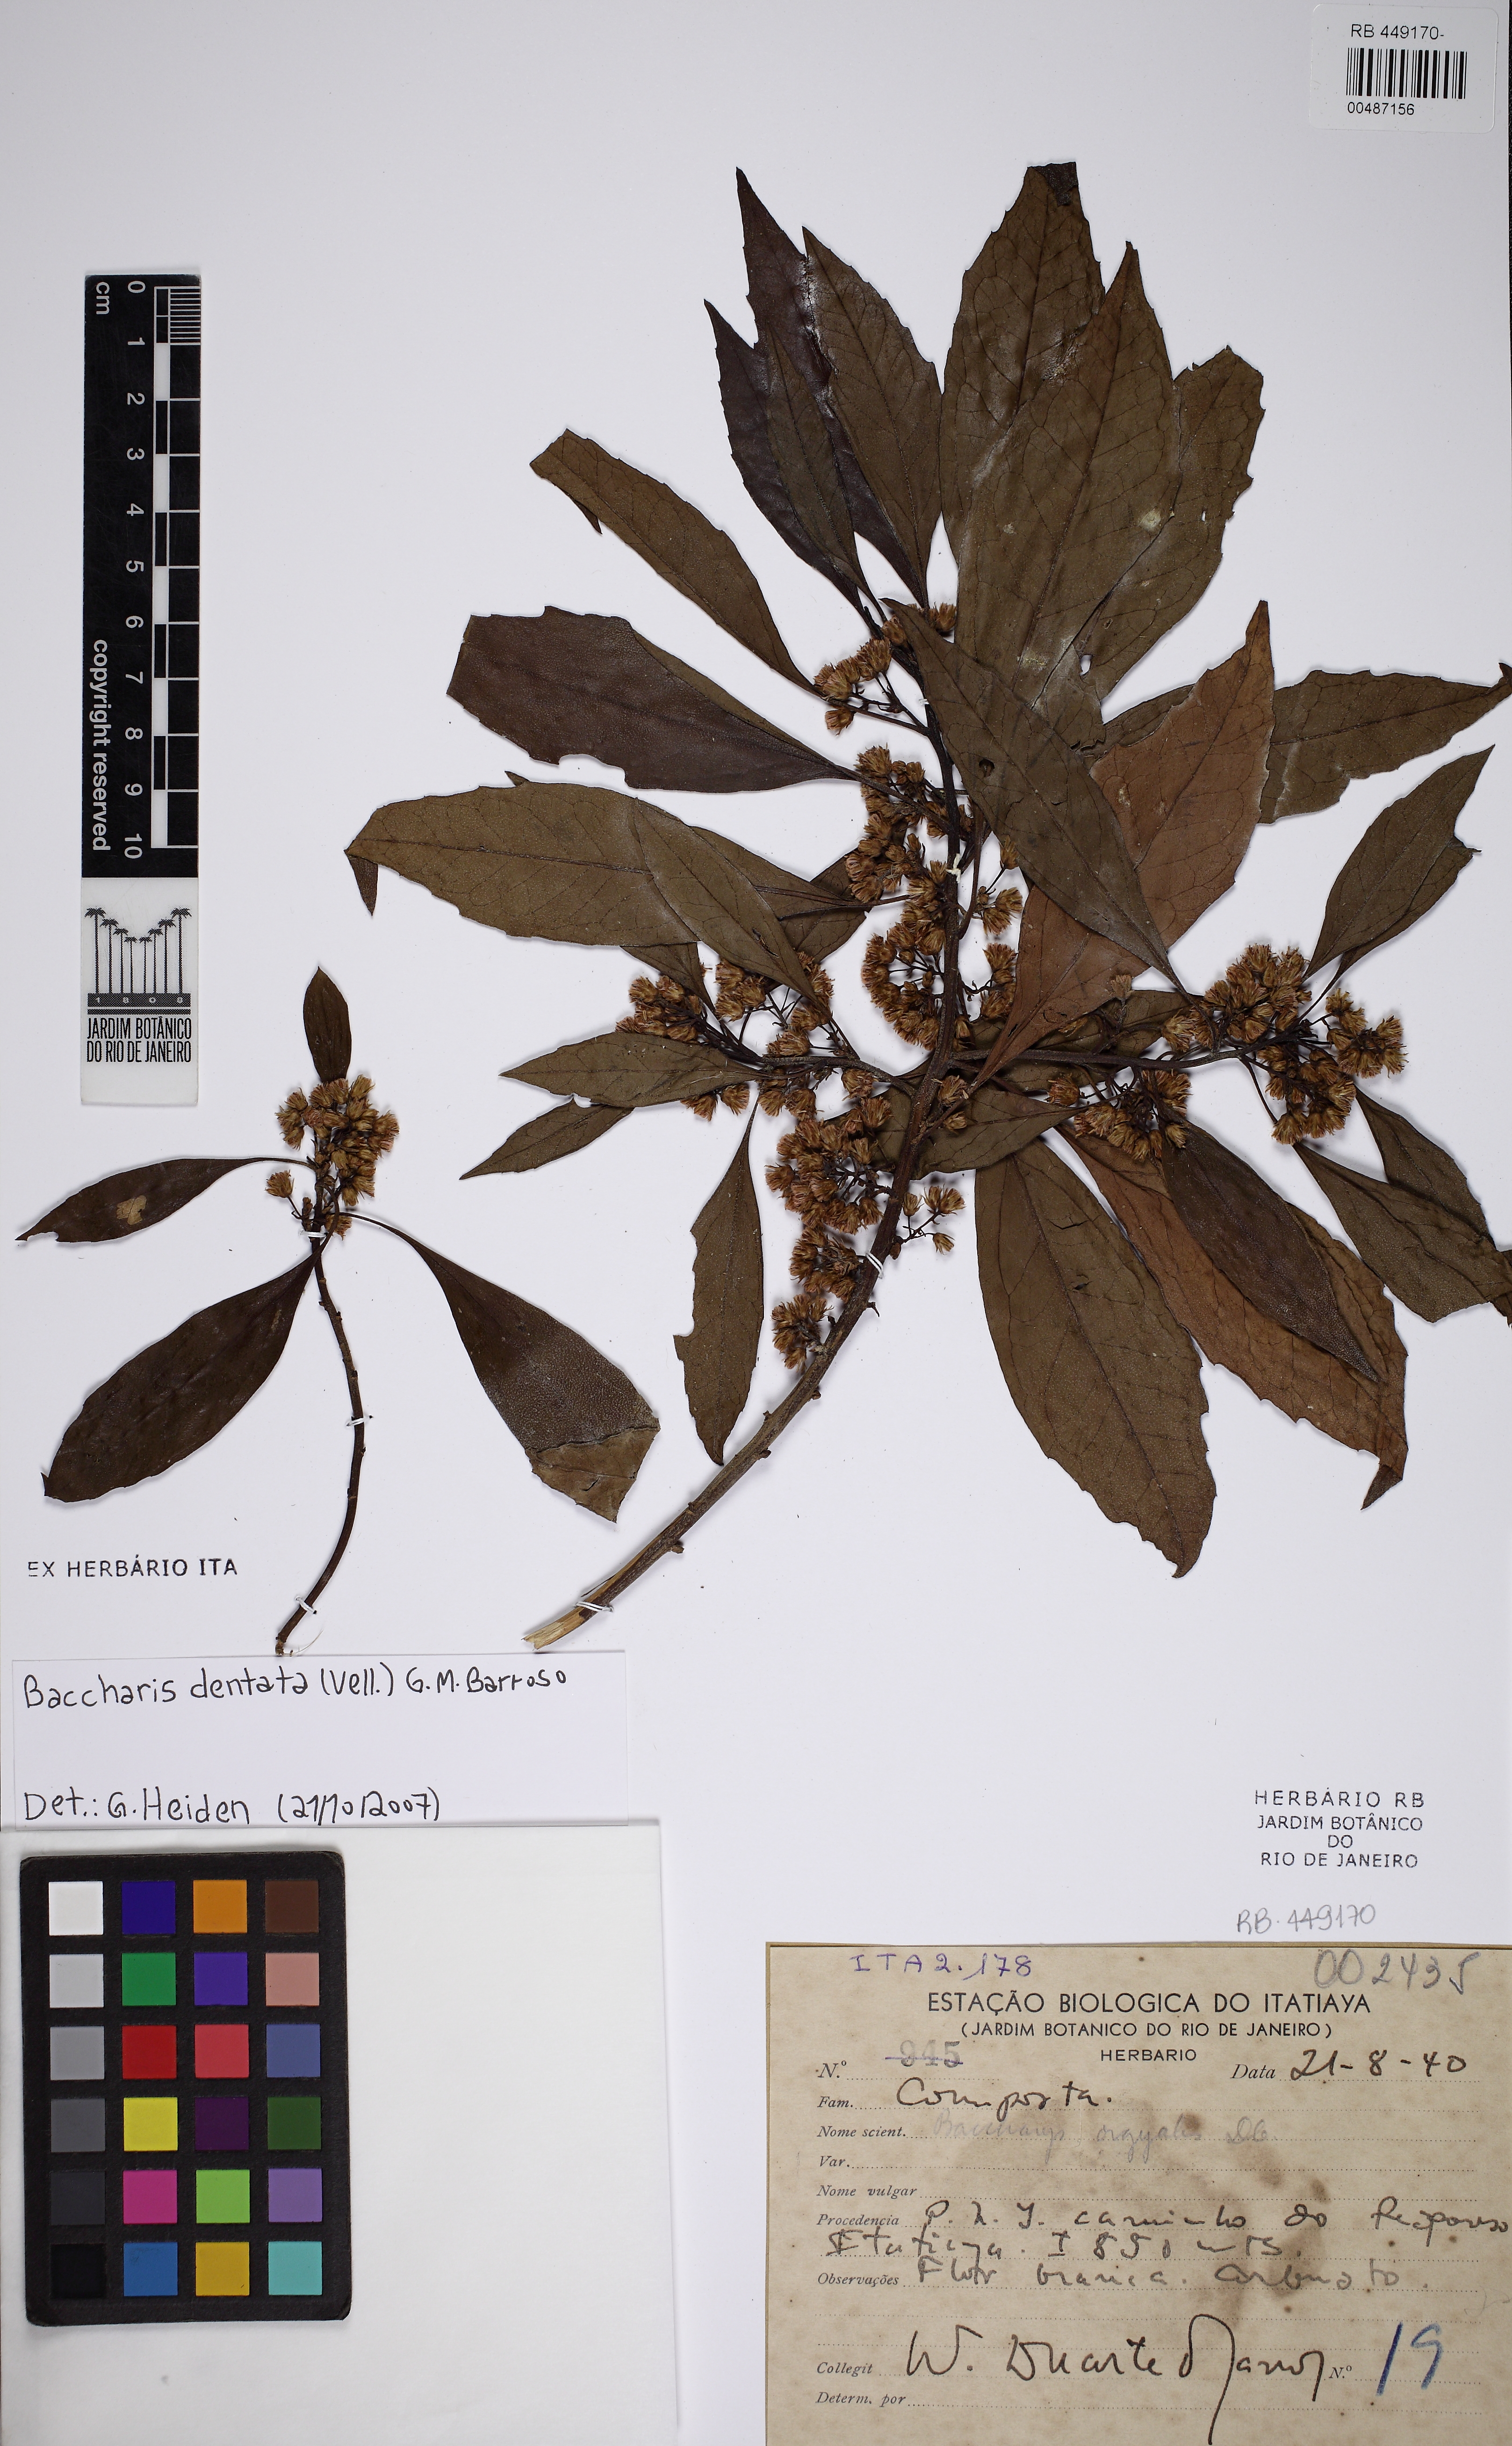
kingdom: Plantae
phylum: Tracheophyta
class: Magnoliopsida
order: Asterales
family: Asteraceae
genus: Baccharis
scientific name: Baccharis uncinella
